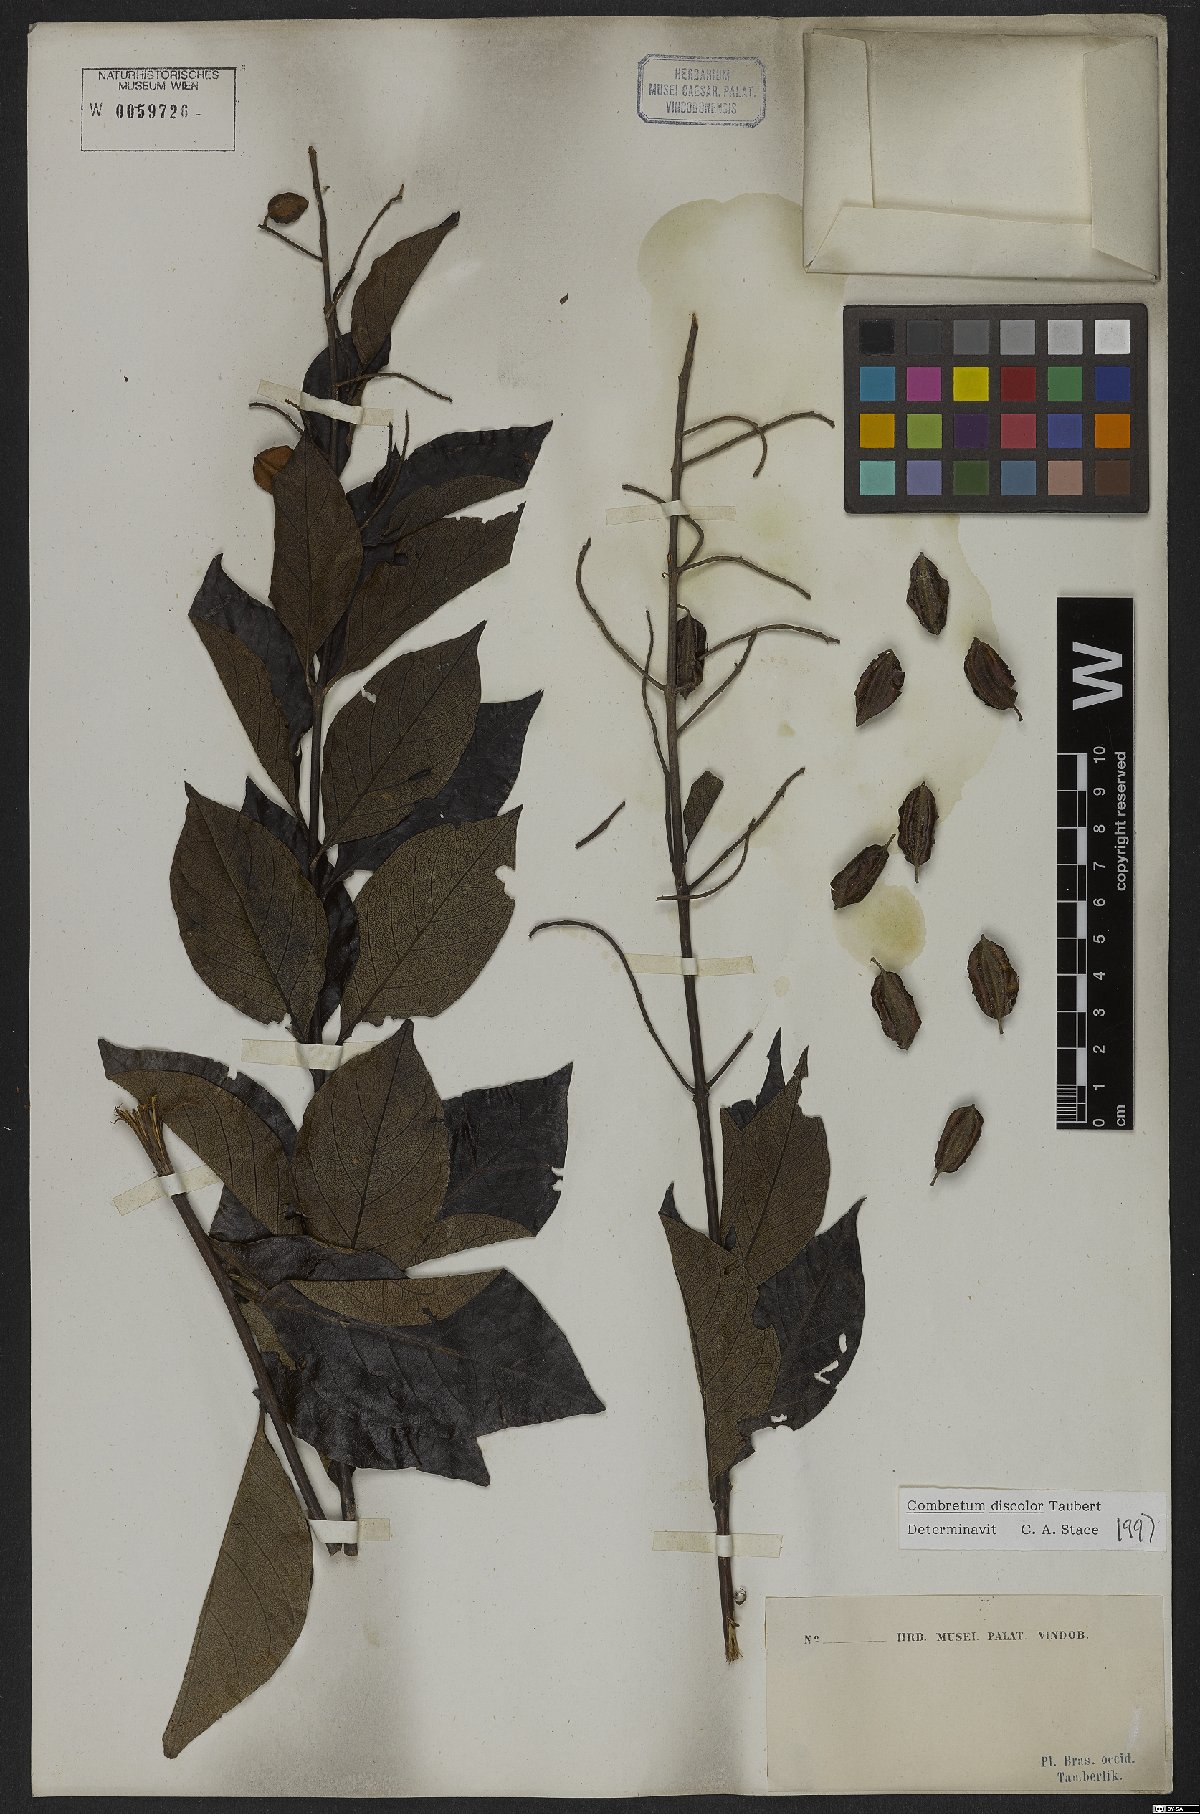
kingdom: Plantae
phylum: Tracheophyta
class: Magnoliopsida
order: Myrtales
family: Combretaceae
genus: Combretum
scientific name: Combretum discolor
